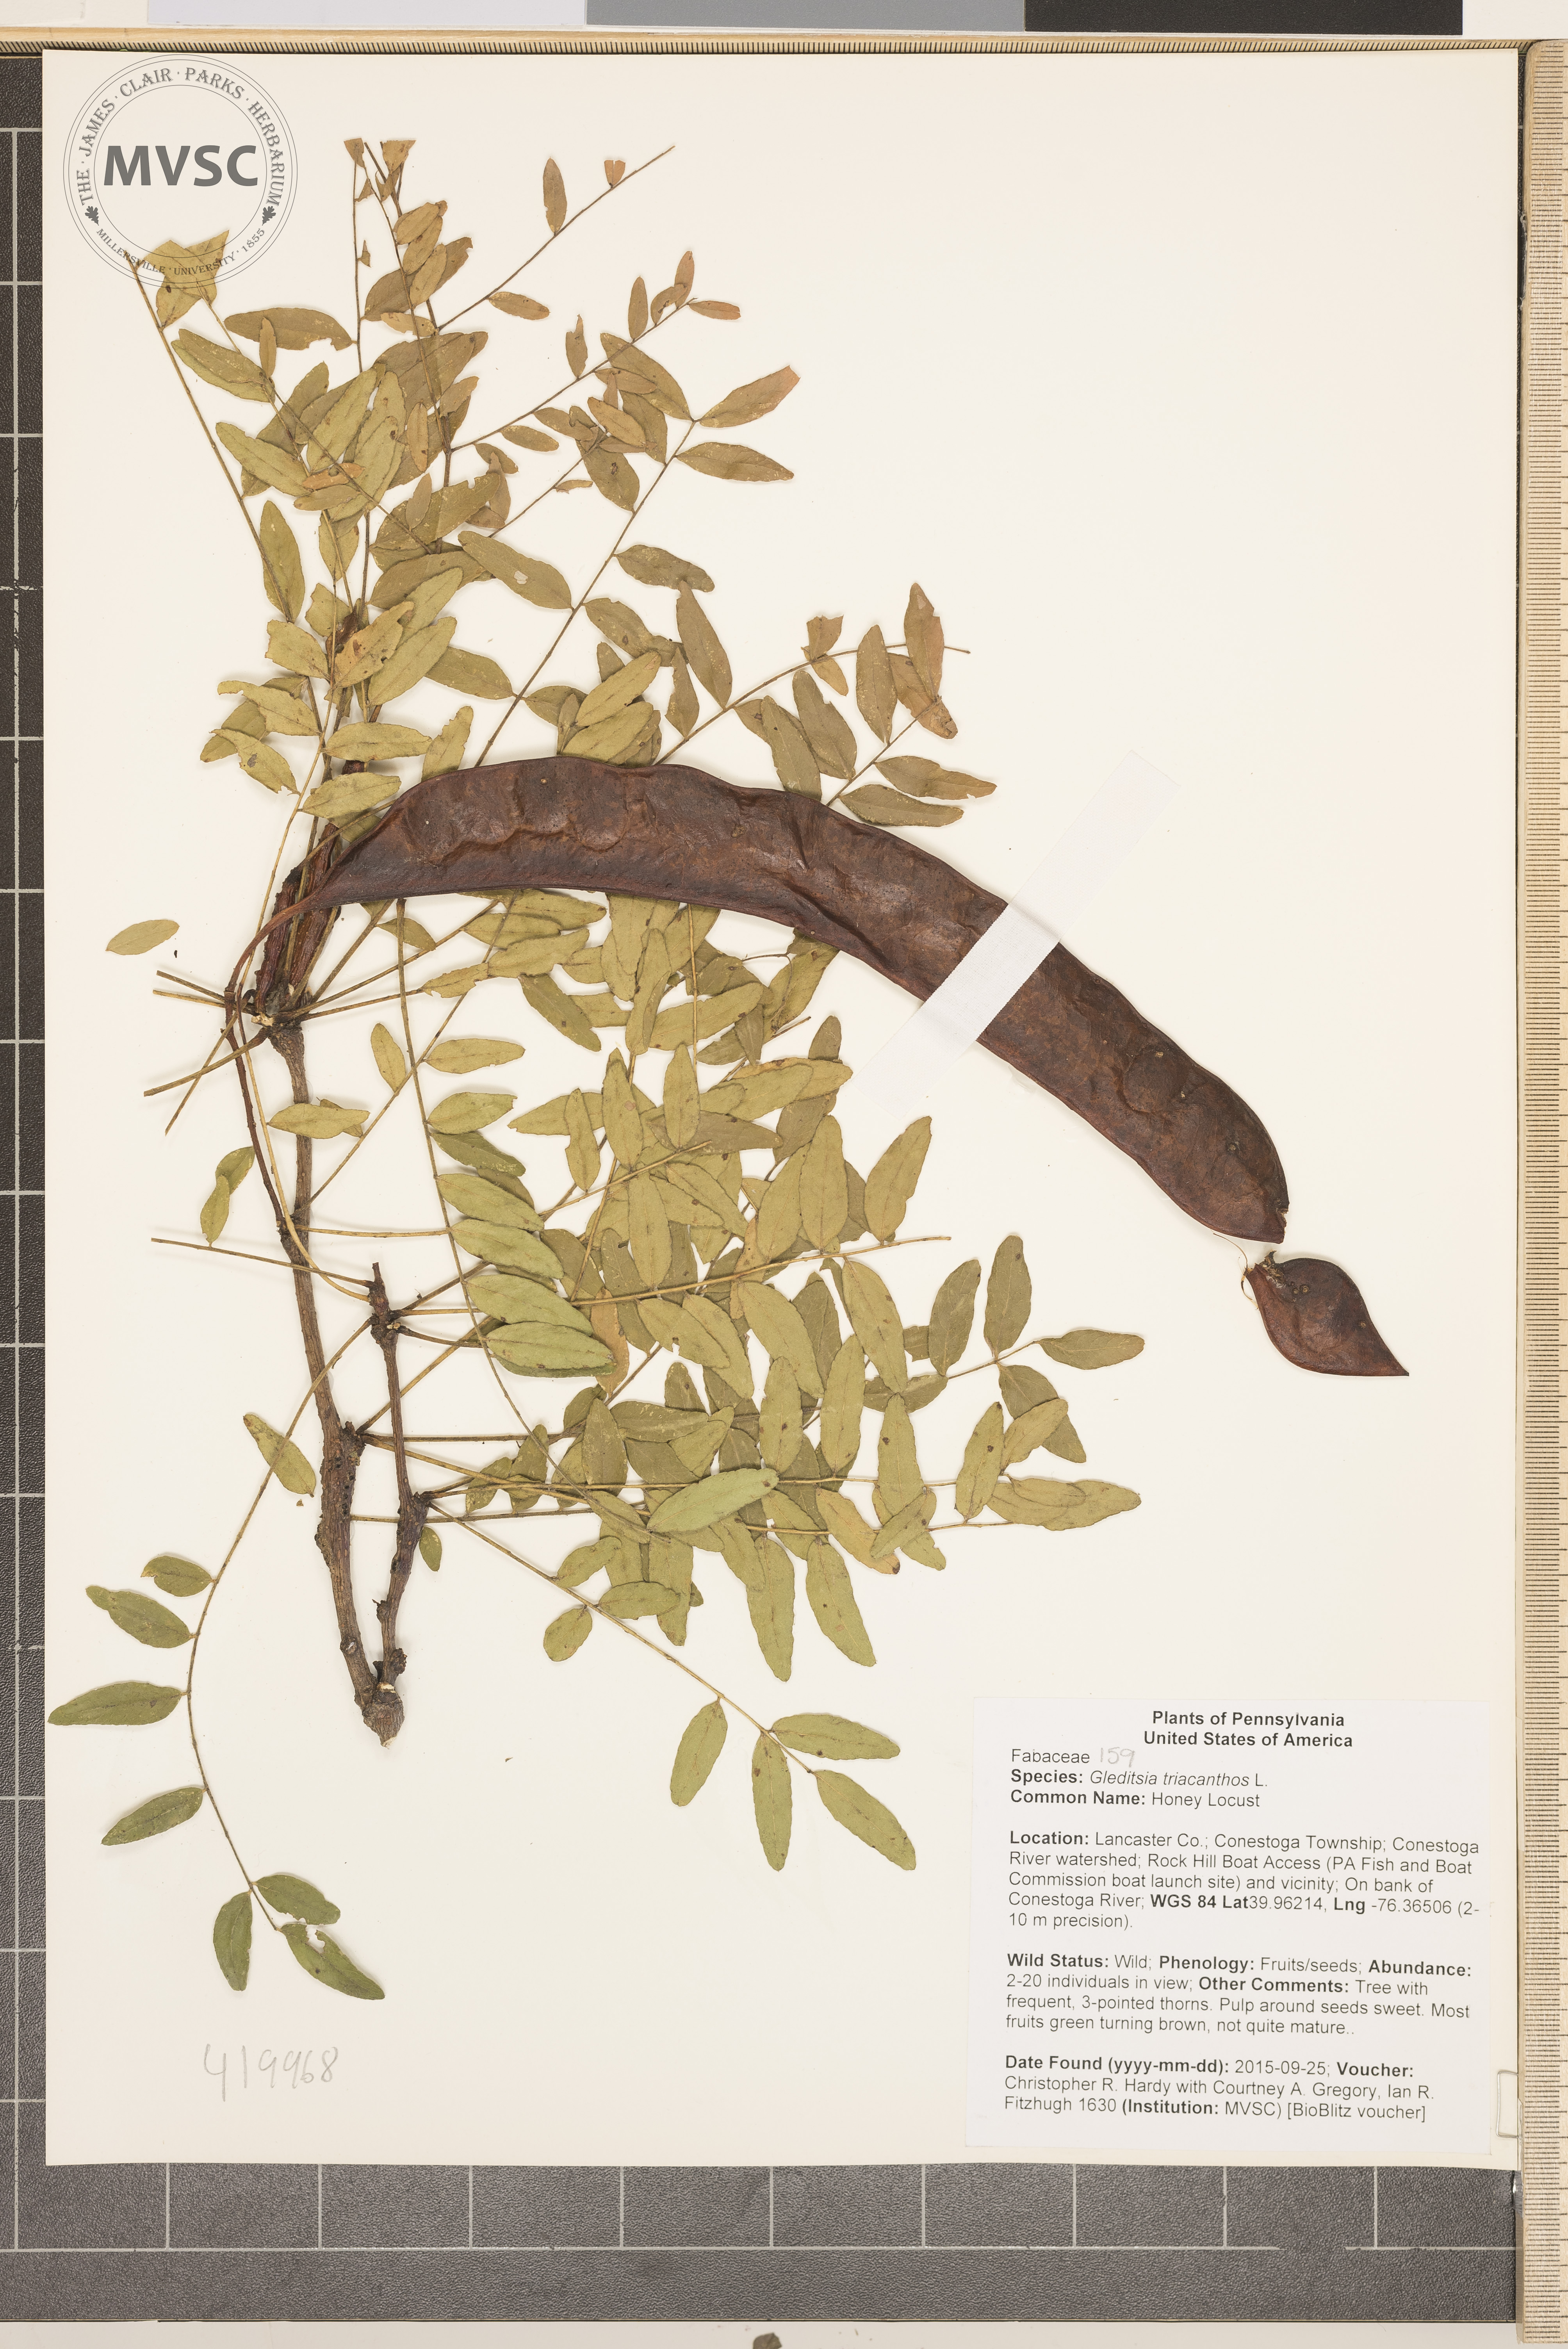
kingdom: Plantae
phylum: Tracheophyta
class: Magnoliopsida
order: Fabales
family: Fabaceae
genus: Gleditsia
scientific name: Gleditsia triacanthos
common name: Honey Locust
